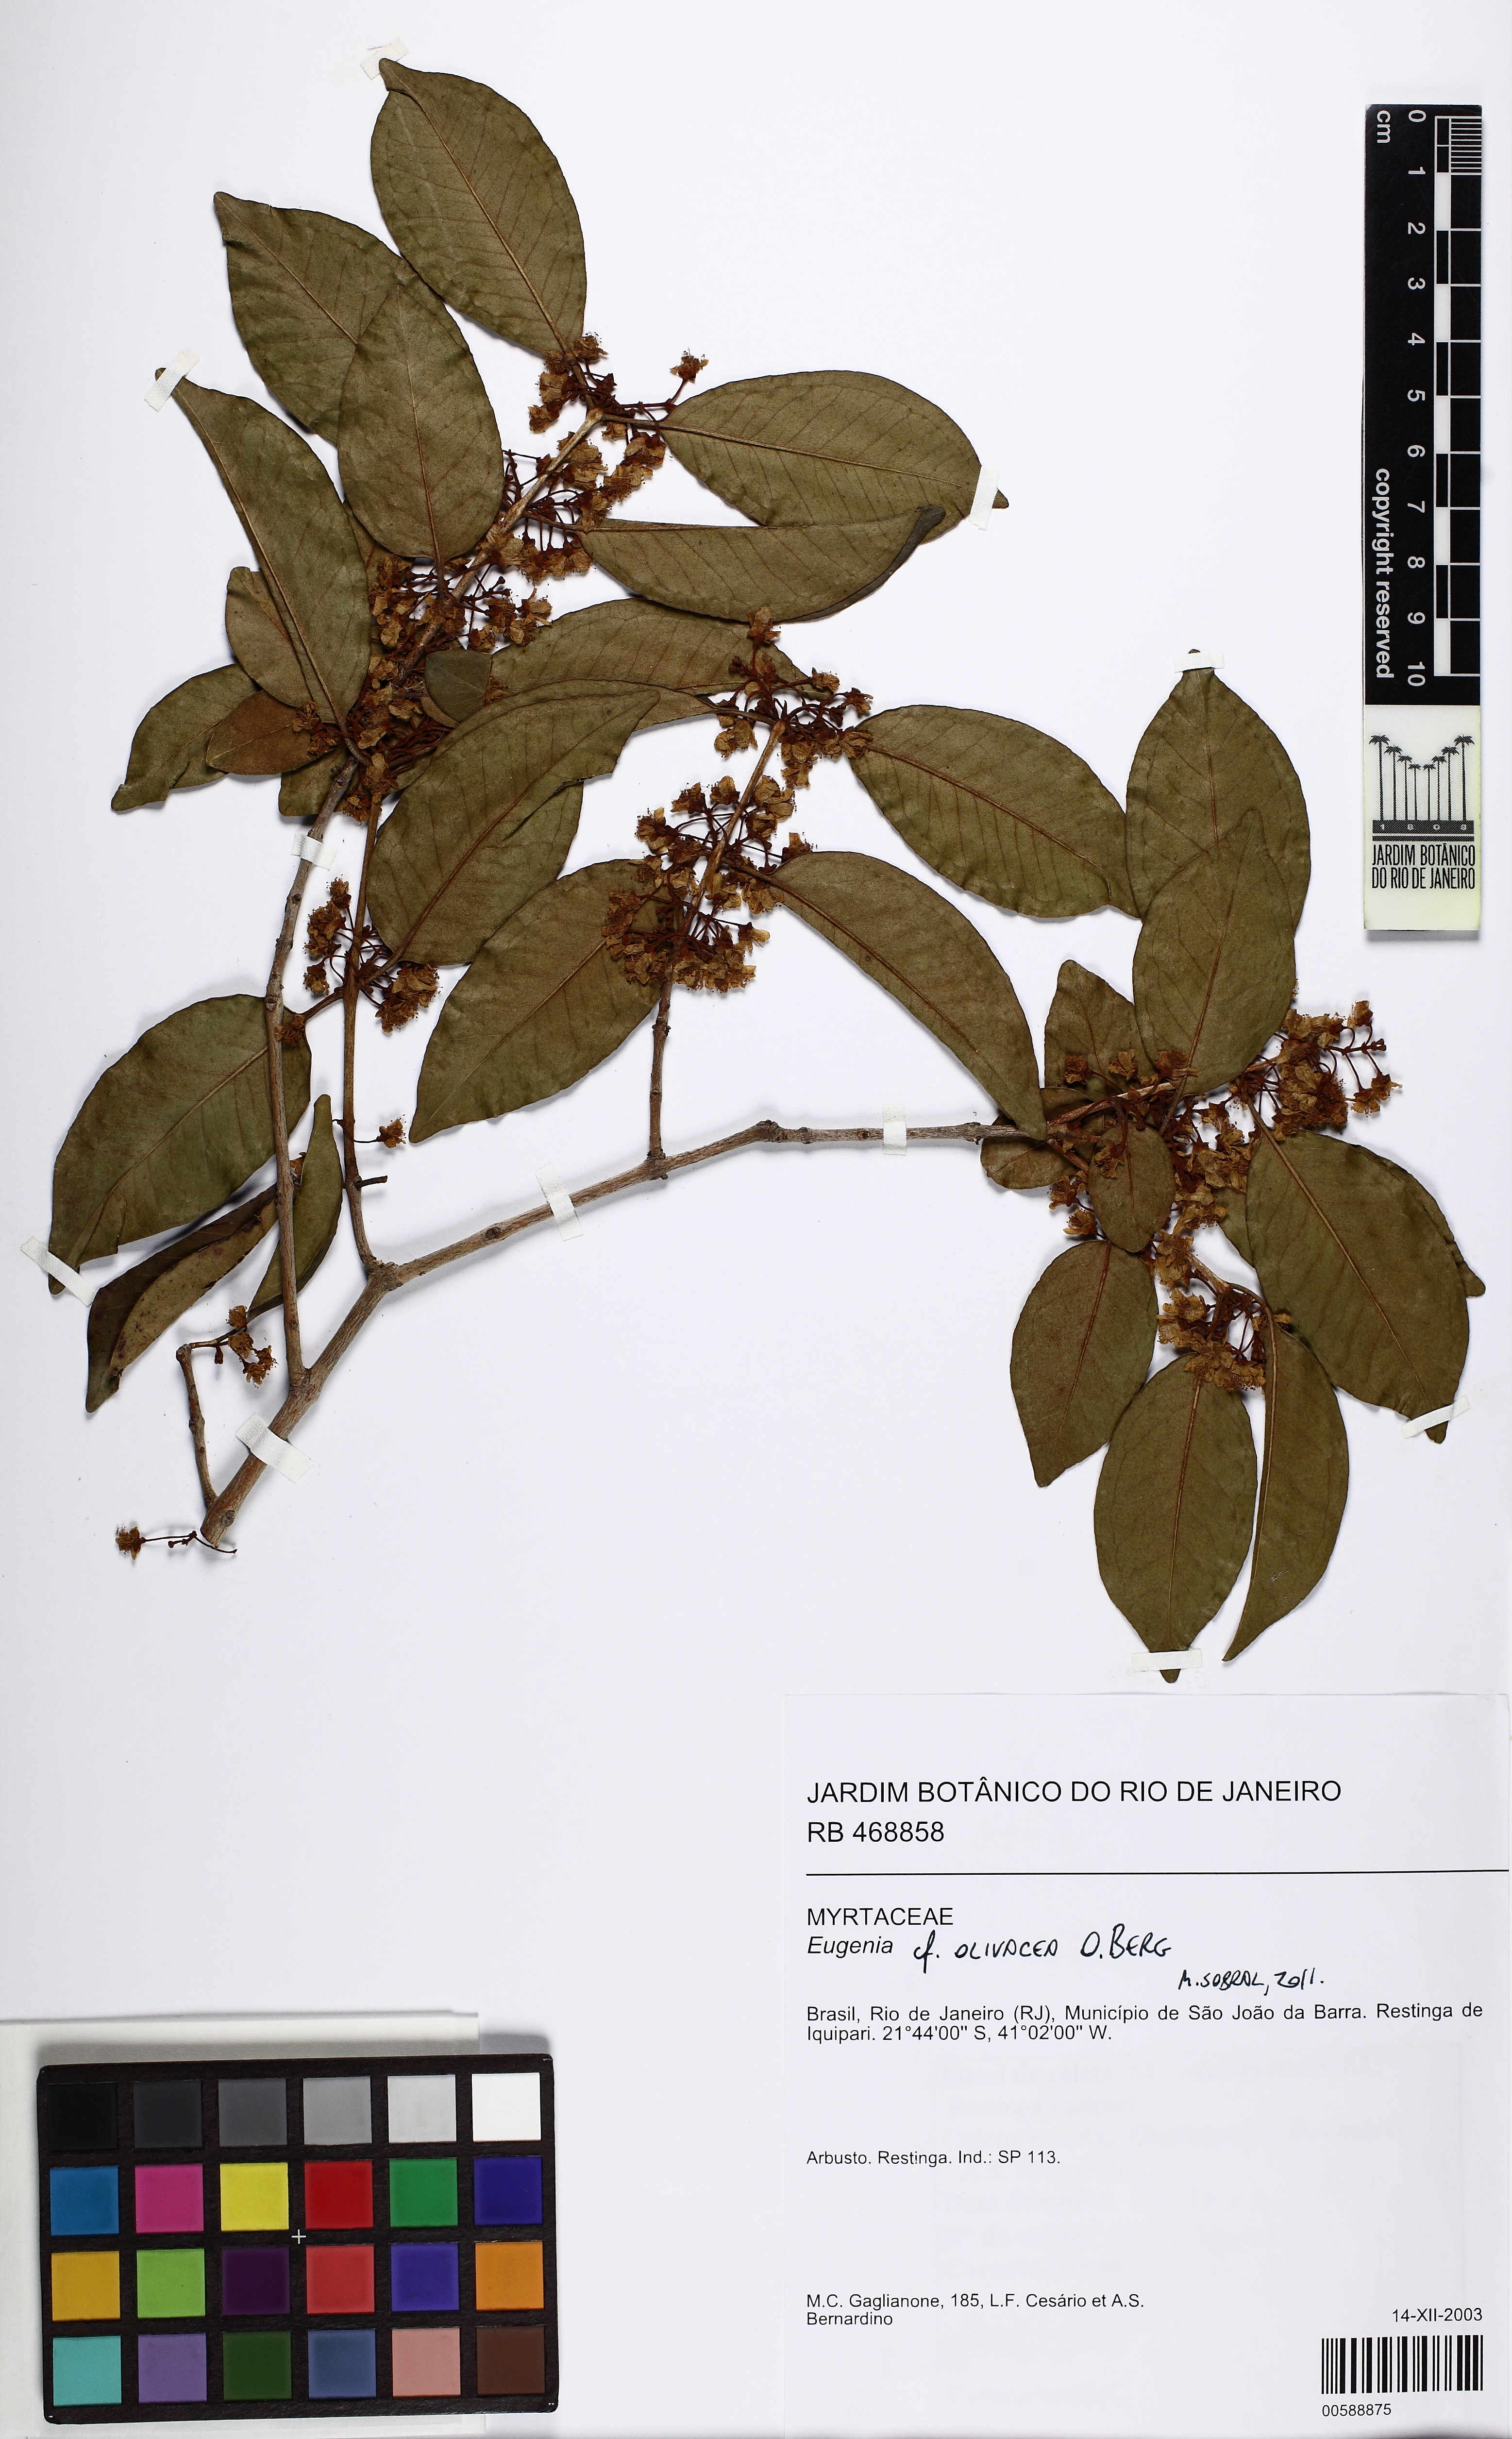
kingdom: Plantae
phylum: Tracheophyta
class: Magnoliopsida
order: Myrtales
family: Myrtaceae
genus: Eugenia
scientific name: Eugenia pruniformis
